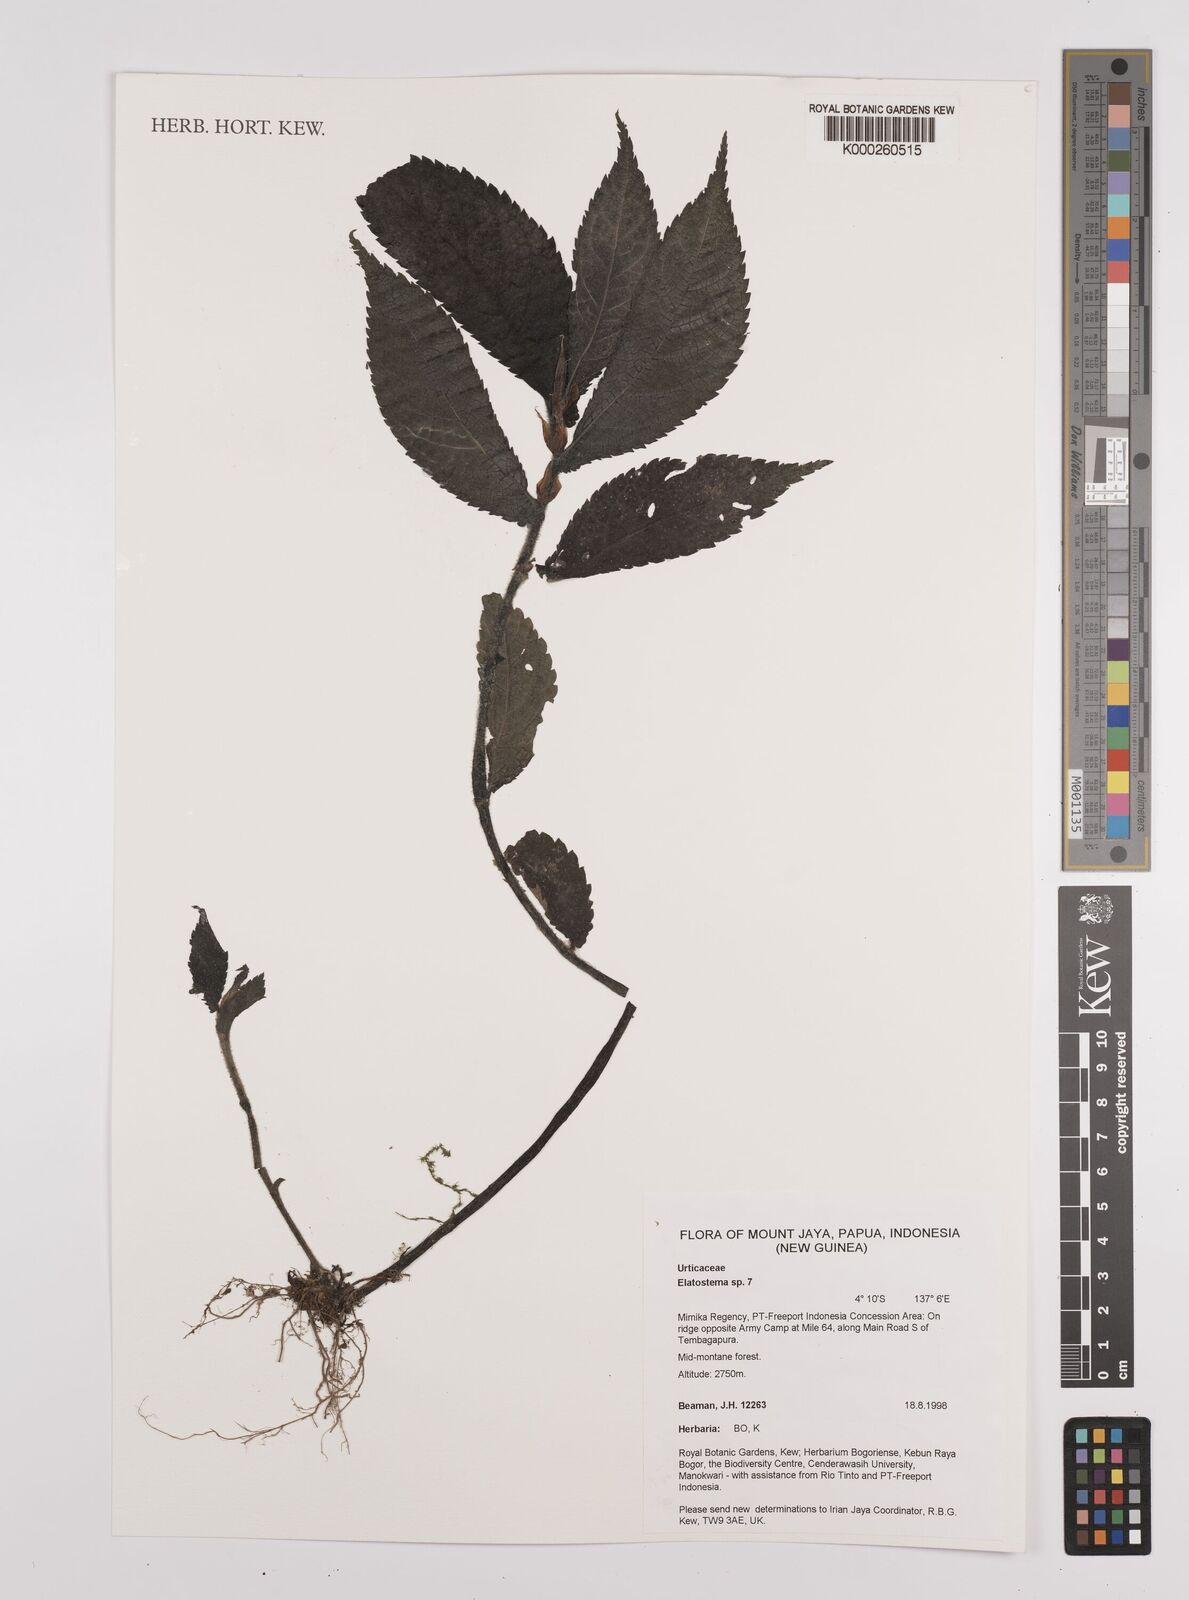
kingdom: Plantae
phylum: Tracheophyta
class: Magnoliopsida
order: Rosales
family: Urticaceae
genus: Elatostema
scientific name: Elatostema
